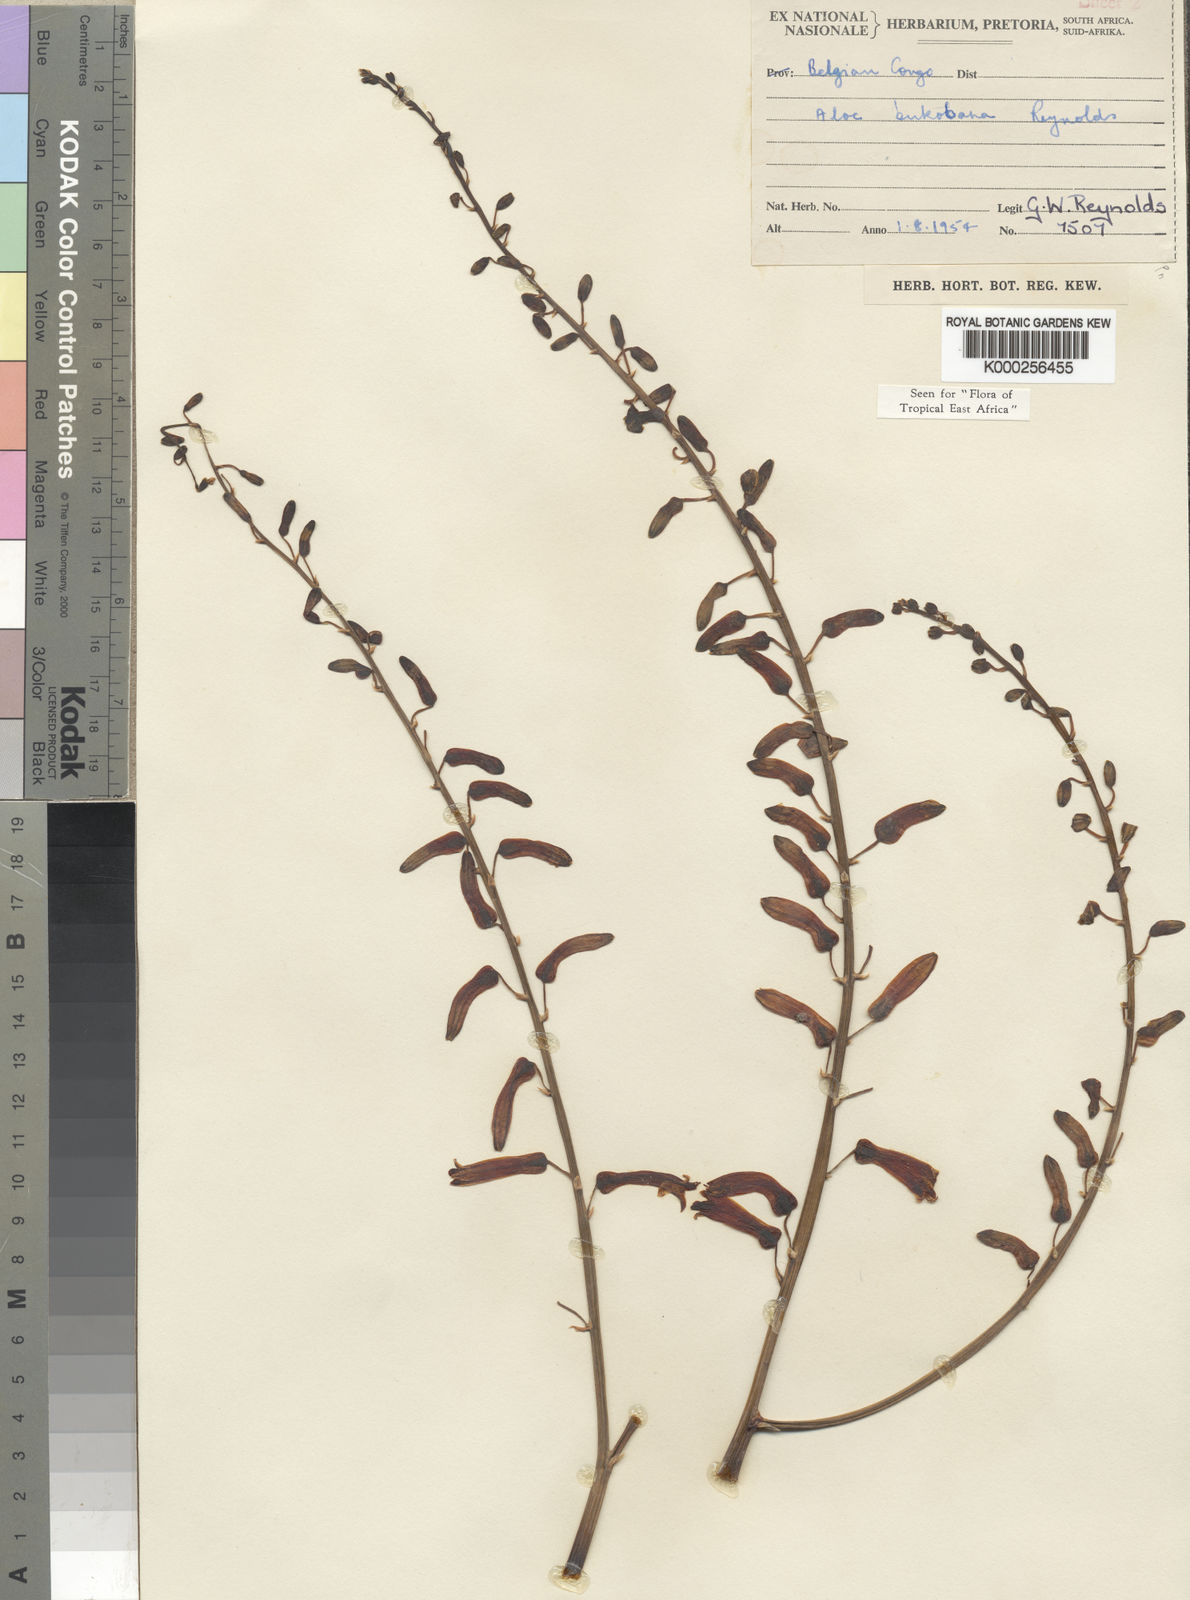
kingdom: Plantae
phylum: Tracheophyta
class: Liliopsida
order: Asparagales
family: Asphodelaceae
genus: Aloe
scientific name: Aloe bukobana
